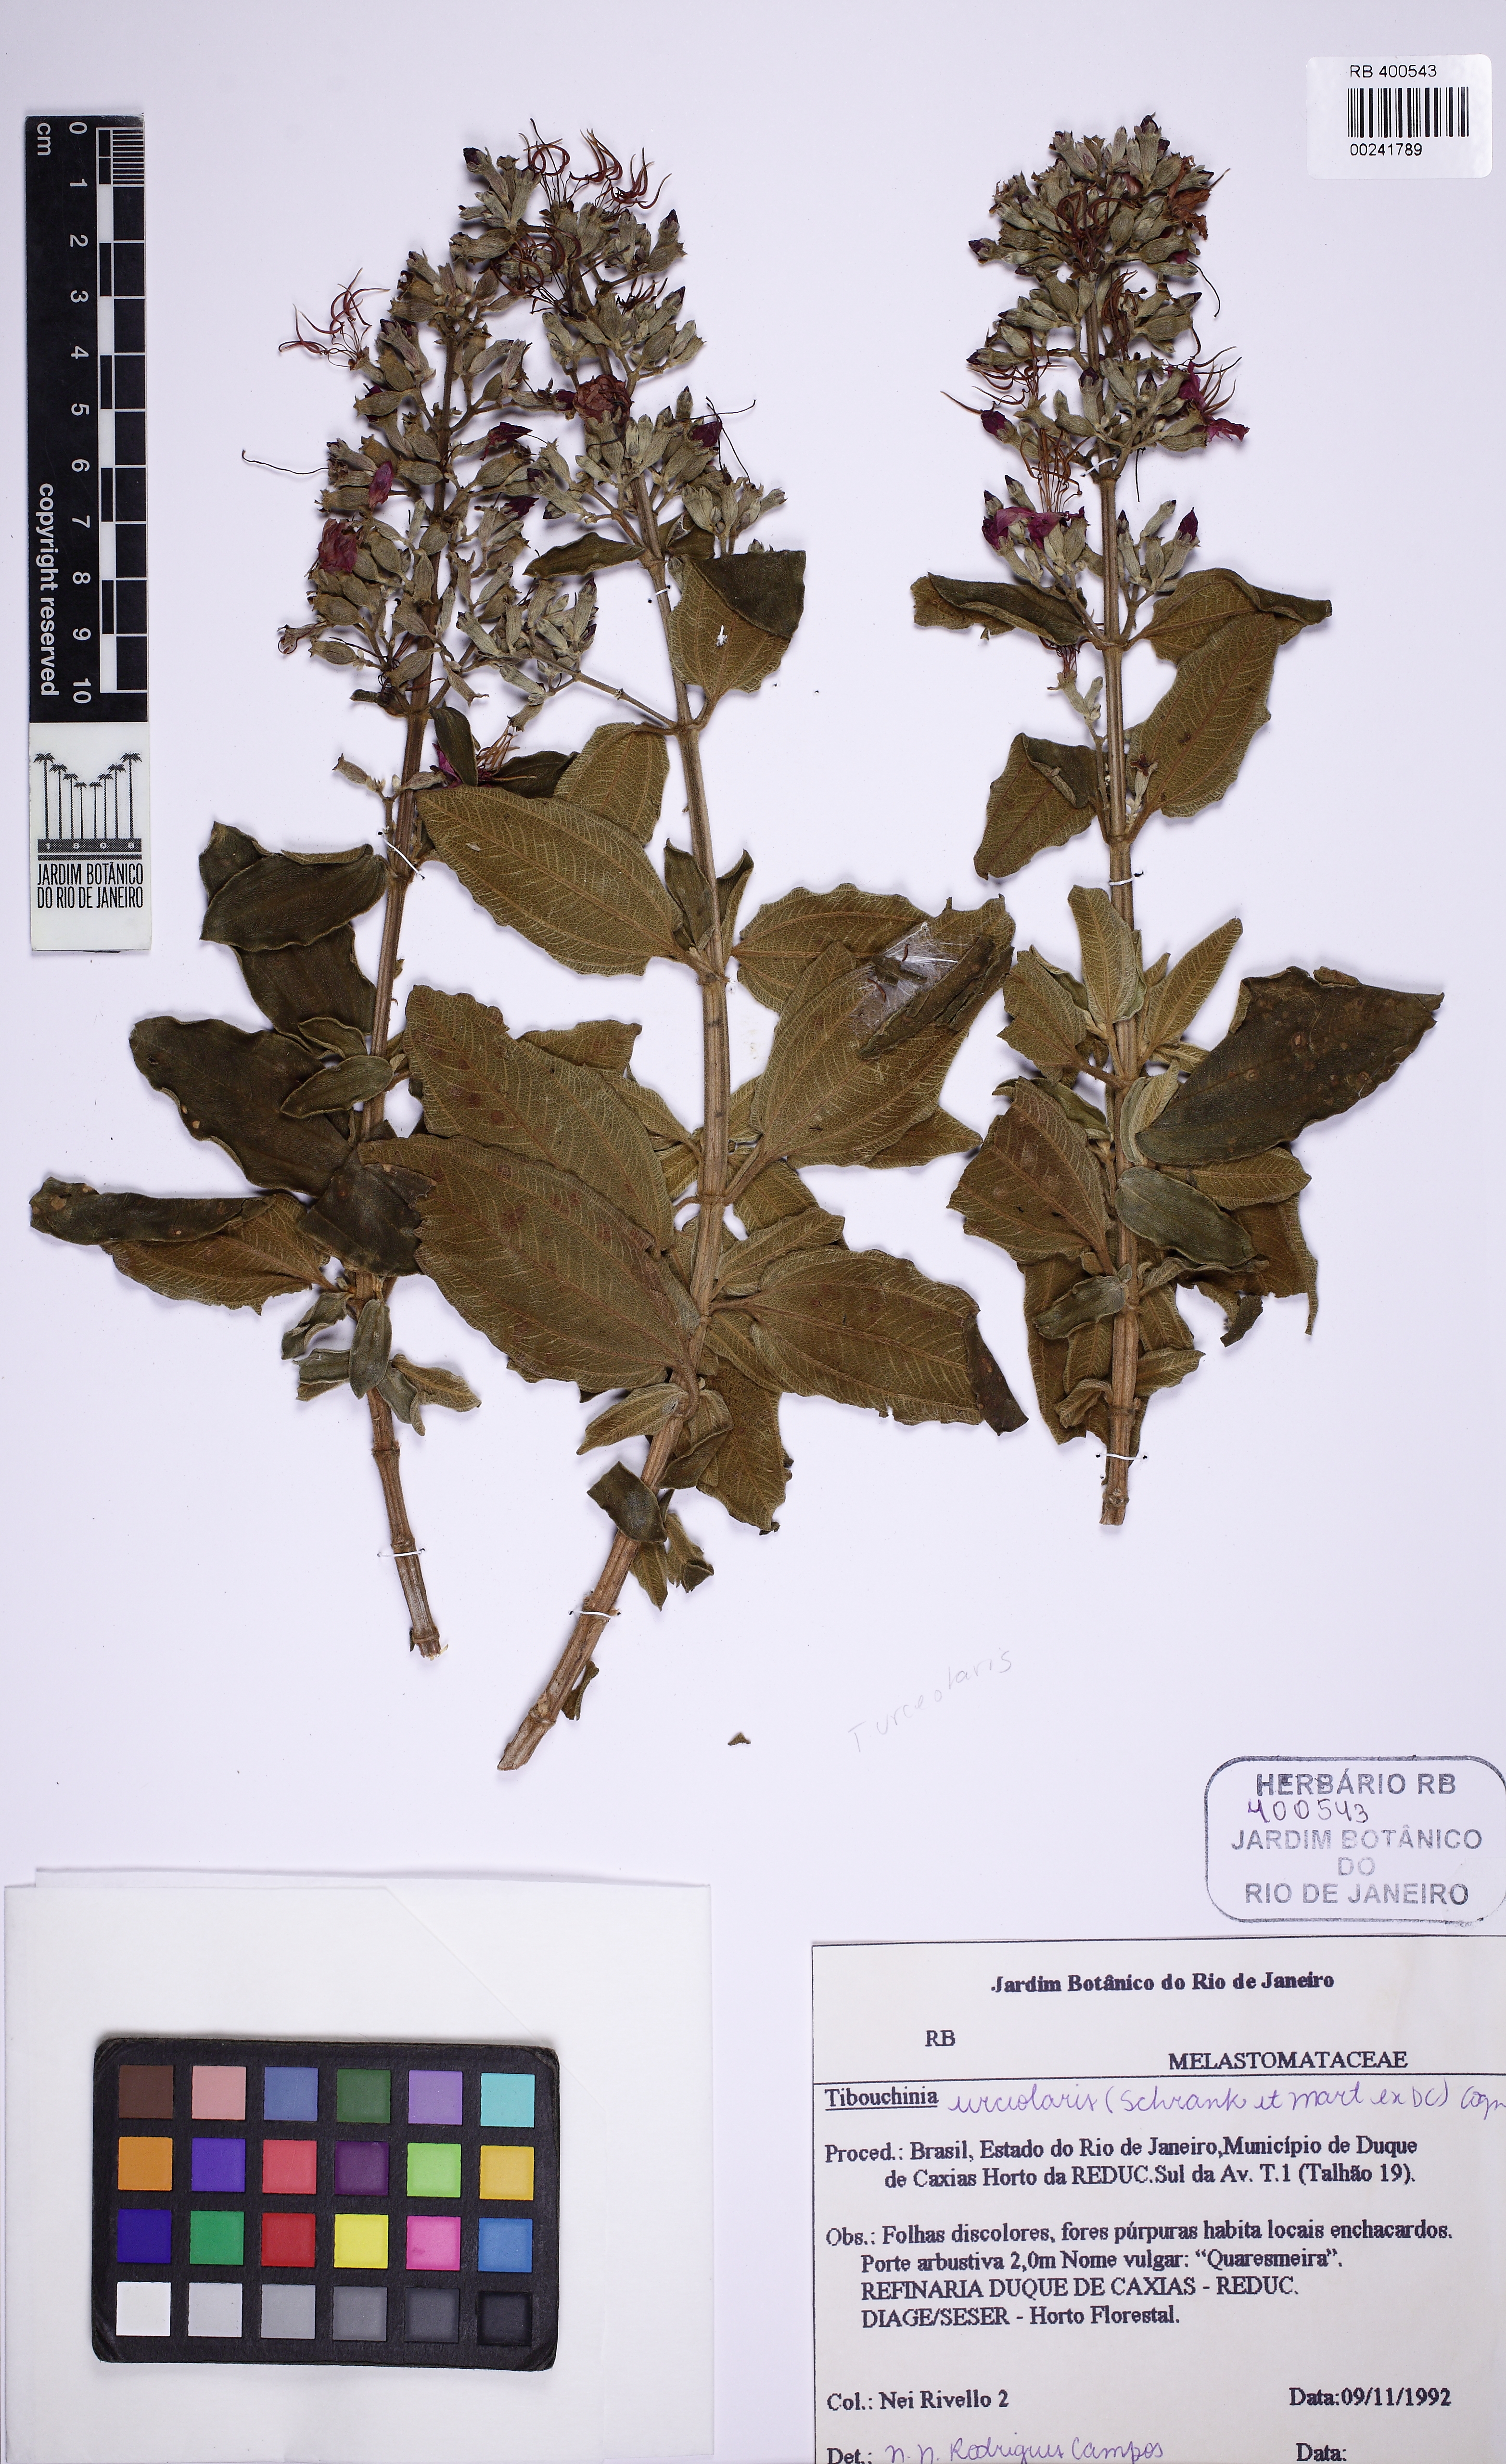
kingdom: Plantae
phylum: Tracheophyta
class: Magnoliopsida
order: Myrtales
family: Melastomataceae
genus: Pleroma
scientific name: Pleroma urceolare
